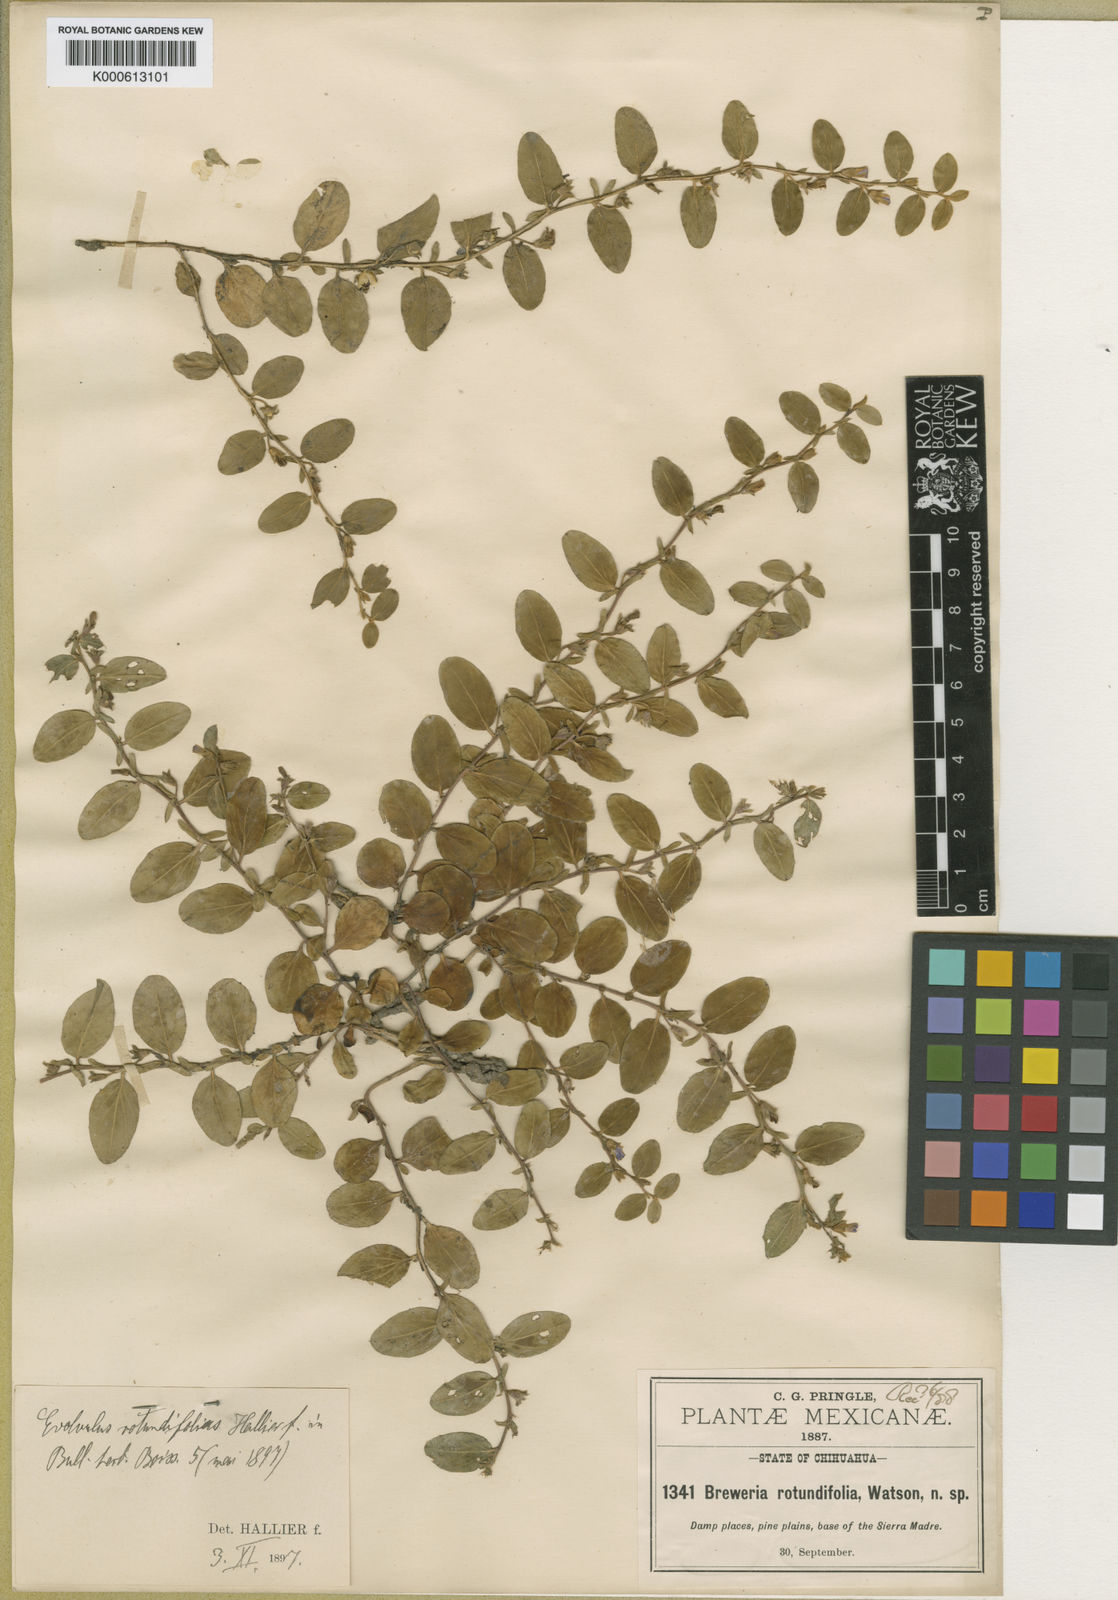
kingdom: Plantae
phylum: Tracheophyta
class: Magnoliopsida
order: Solanales
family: Convolvulaceae
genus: Evolvulus
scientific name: Evolvulus rotundifolius
